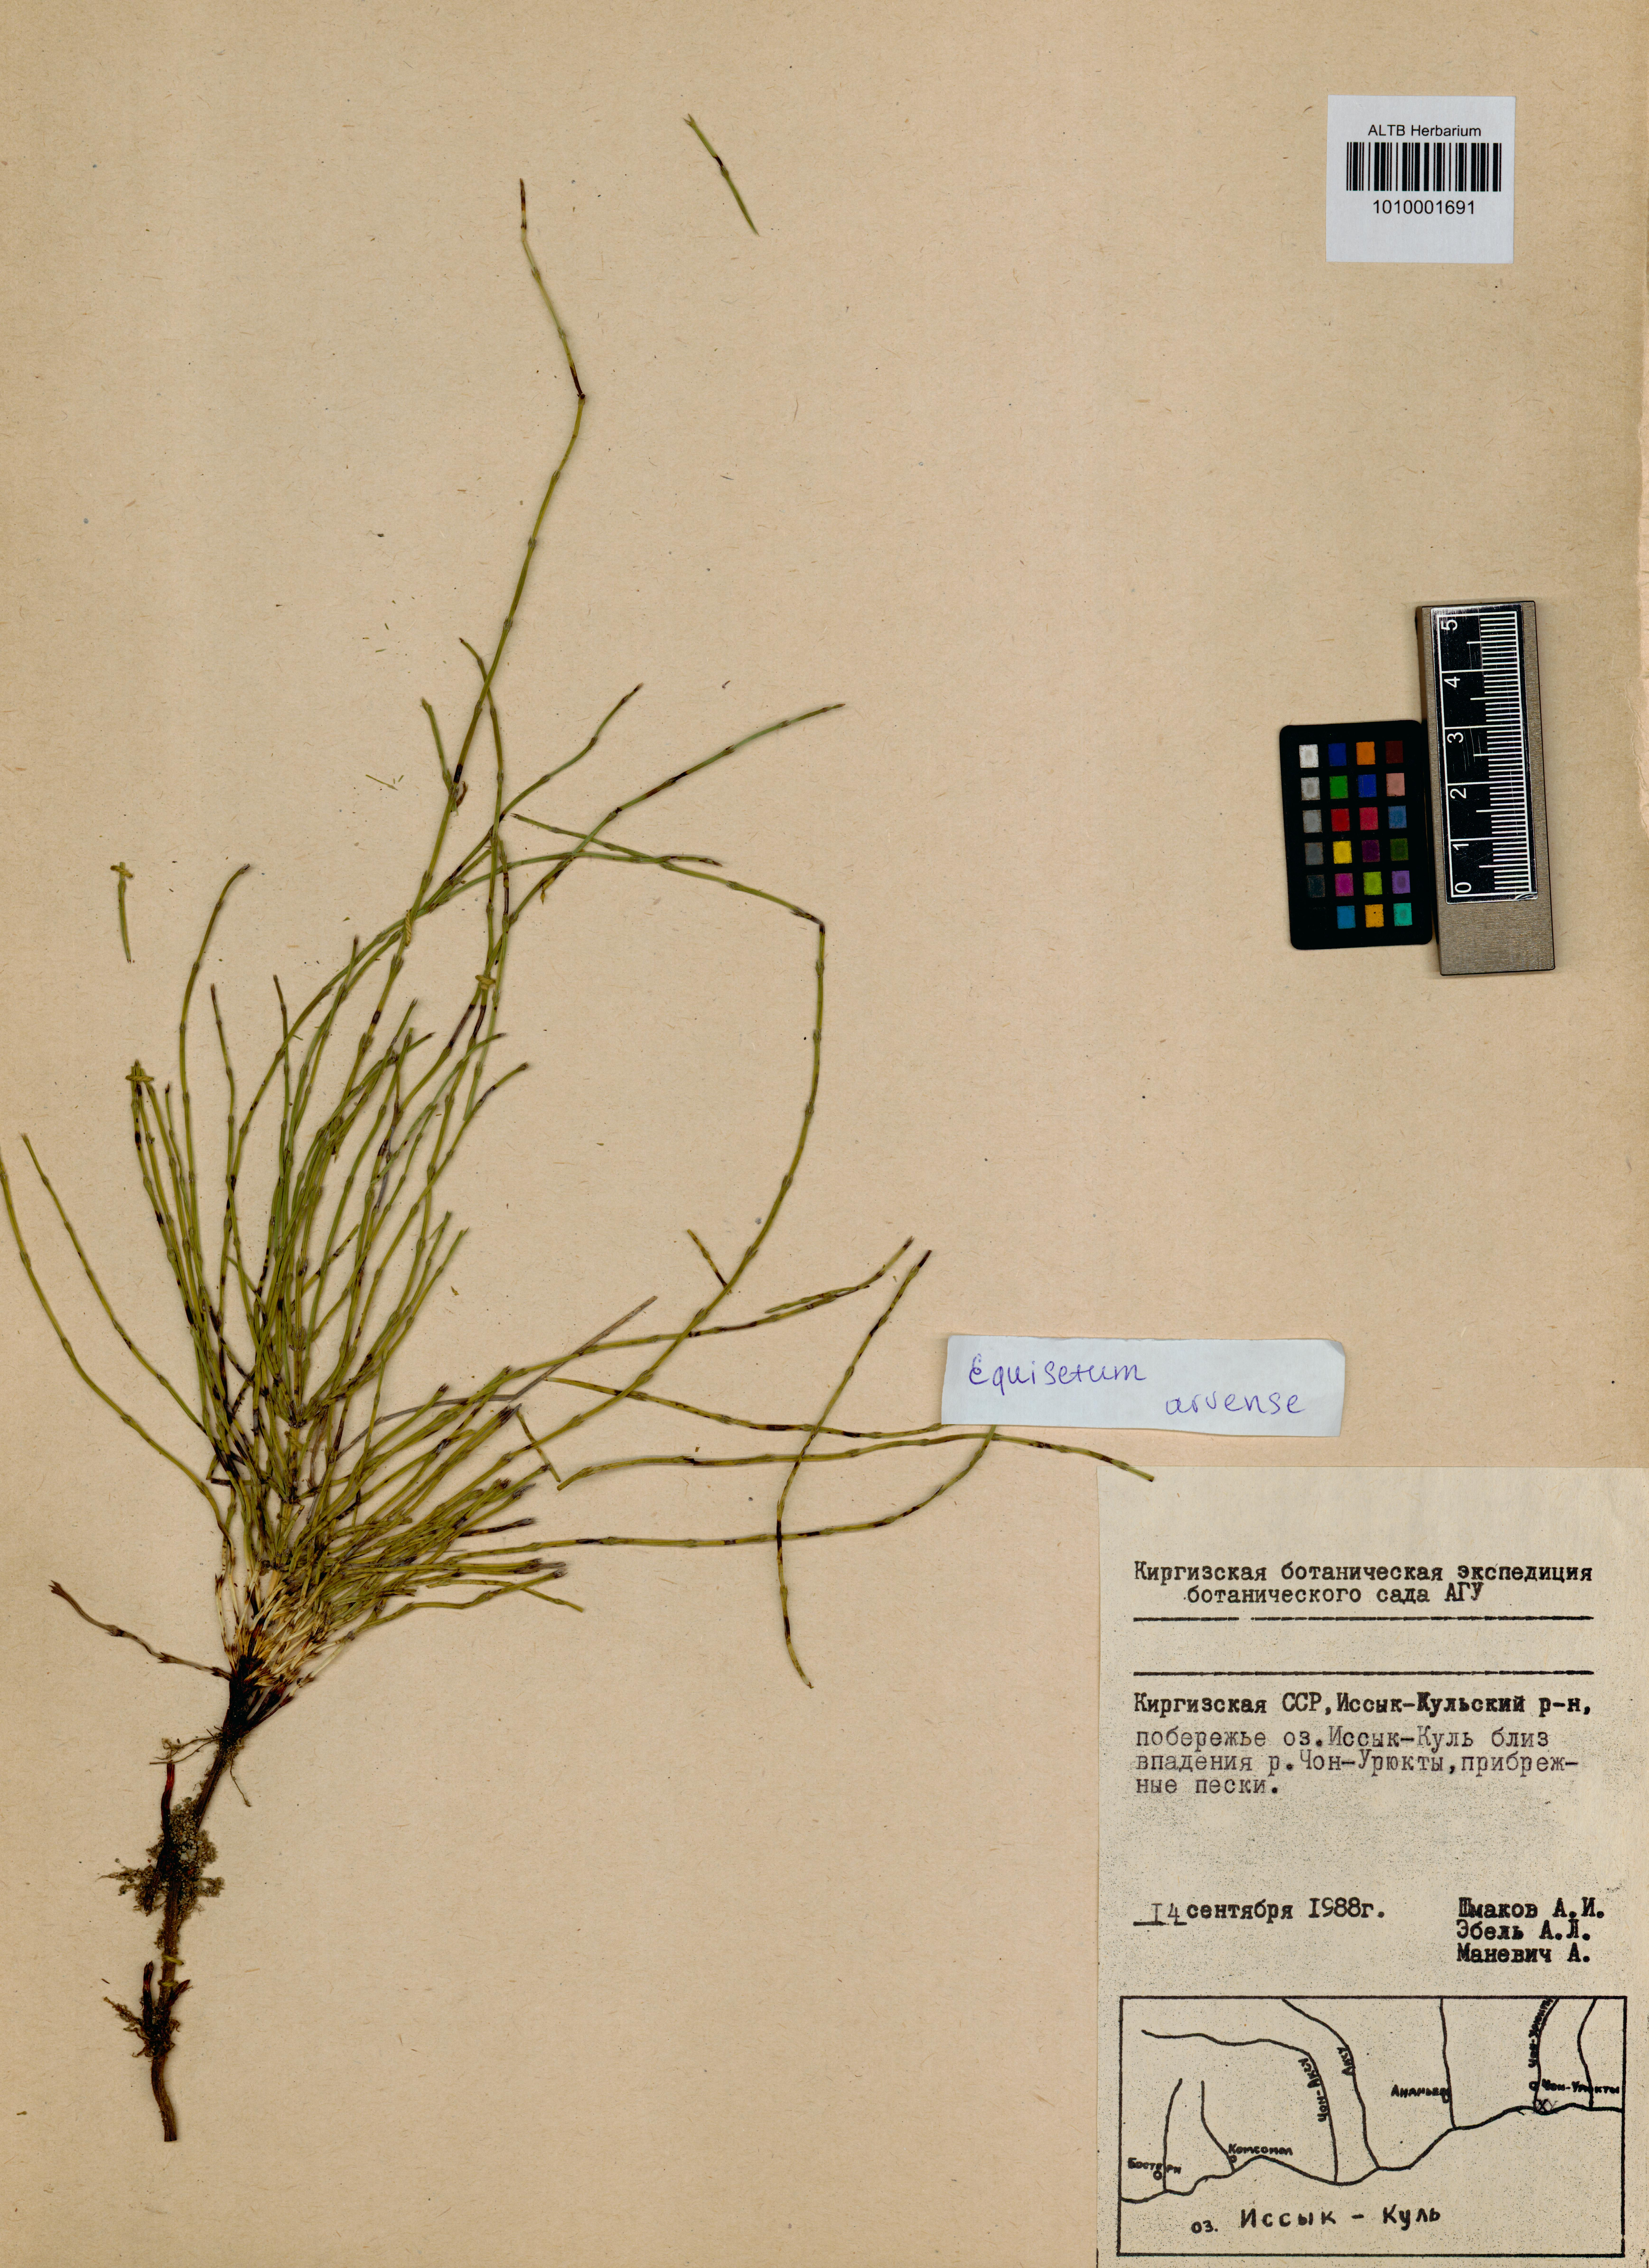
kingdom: Plantae
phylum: Tracheophyta
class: Polypodiopsida
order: Equisetales
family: Equisetaceae
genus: Equisetum
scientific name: Equisetum arvense
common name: Field horsetail
